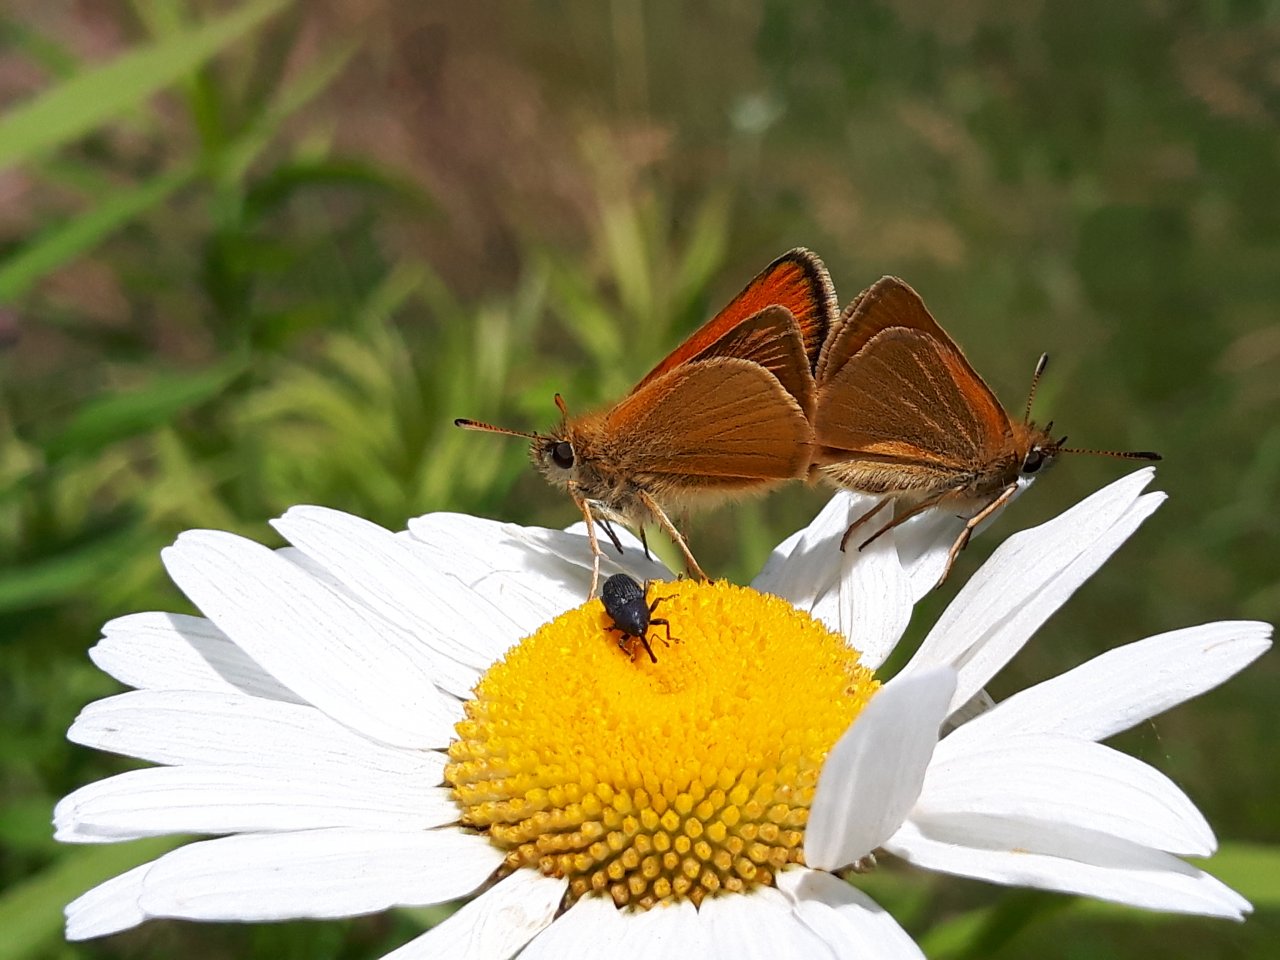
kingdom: Animalia
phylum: Arthropoda
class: Insecta
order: Lepidoptera
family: Hesperiidae
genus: Thymelicus
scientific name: Thymelicus lineola
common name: European Skipper
